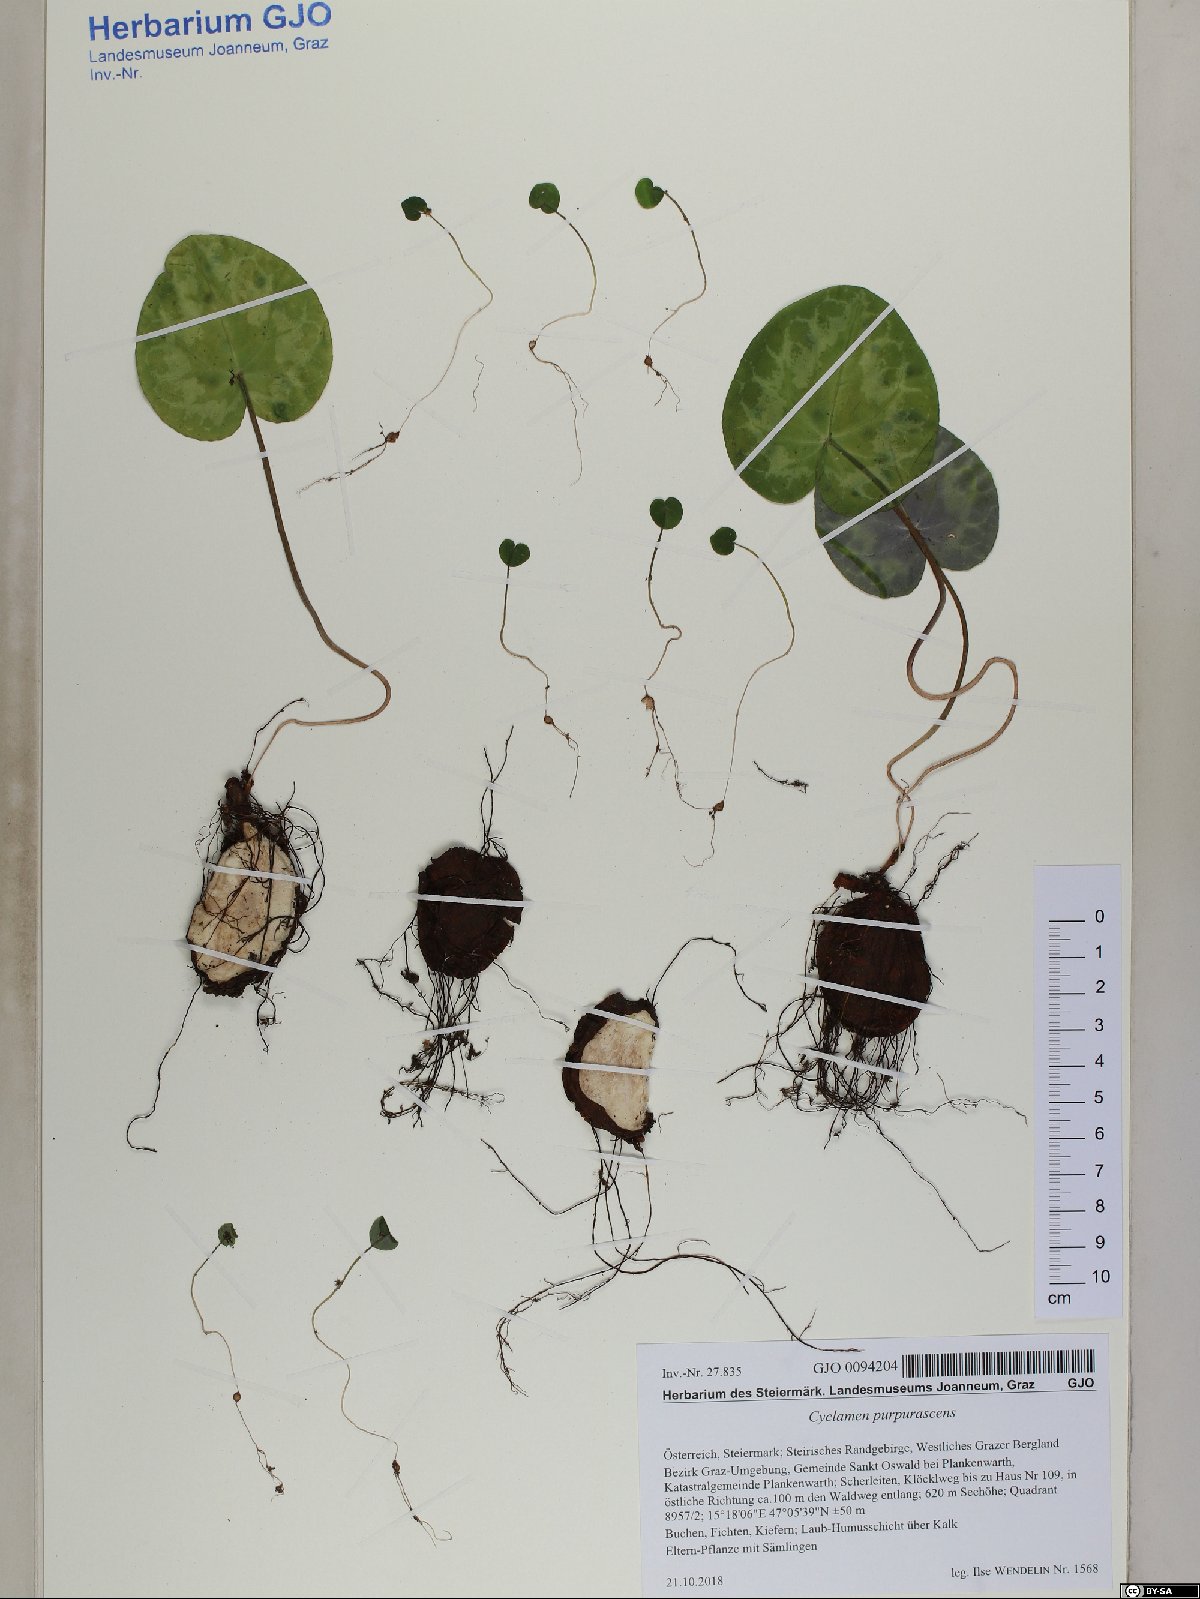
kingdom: Plantae
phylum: Tracheophyta
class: Magnoliopsida
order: Ericales
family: Primulaceae
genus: Cyclamen
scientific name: Cyclamen purpurascens
